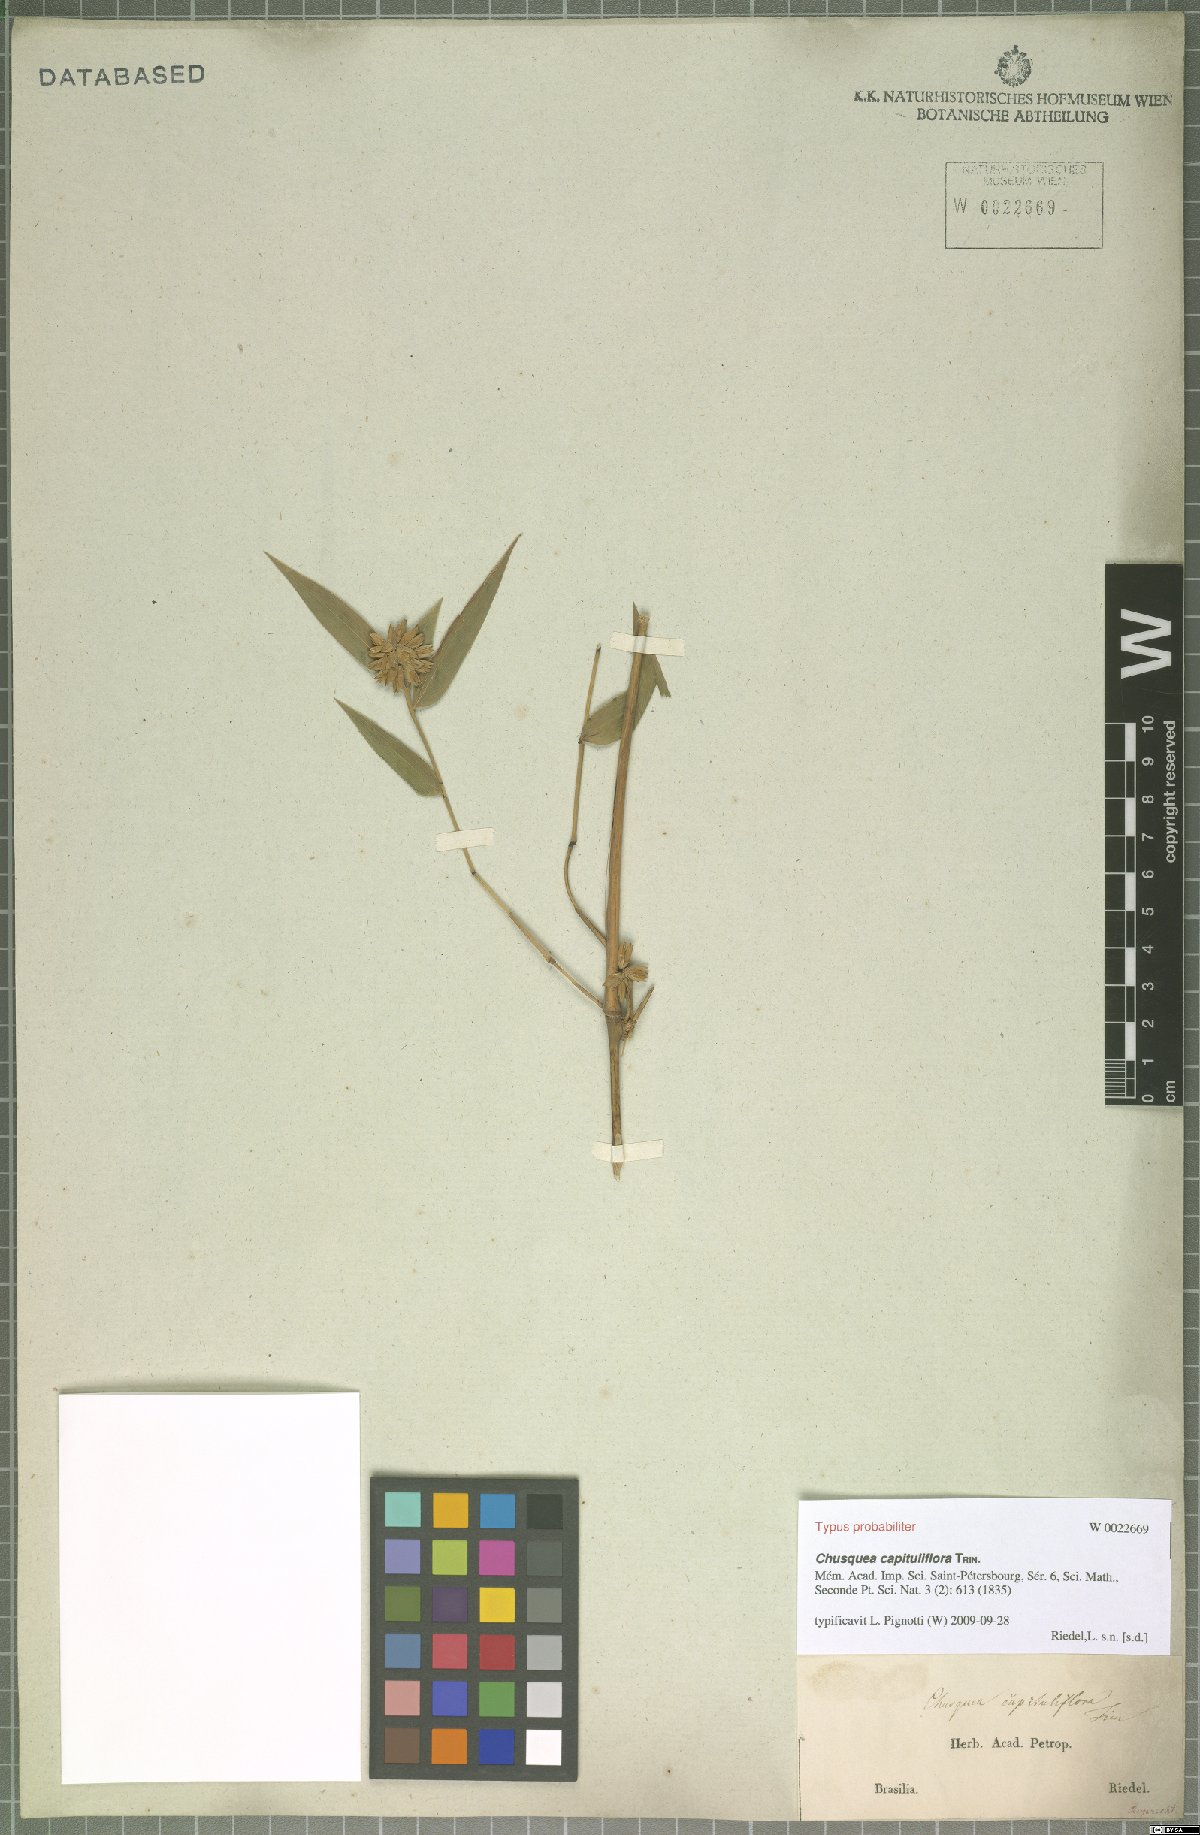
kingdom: Plantae
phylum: Tracheophyta
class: Liliopsida
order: Poales
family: Poaceae
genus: Chusquea
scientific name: Chusquea capituliflora
